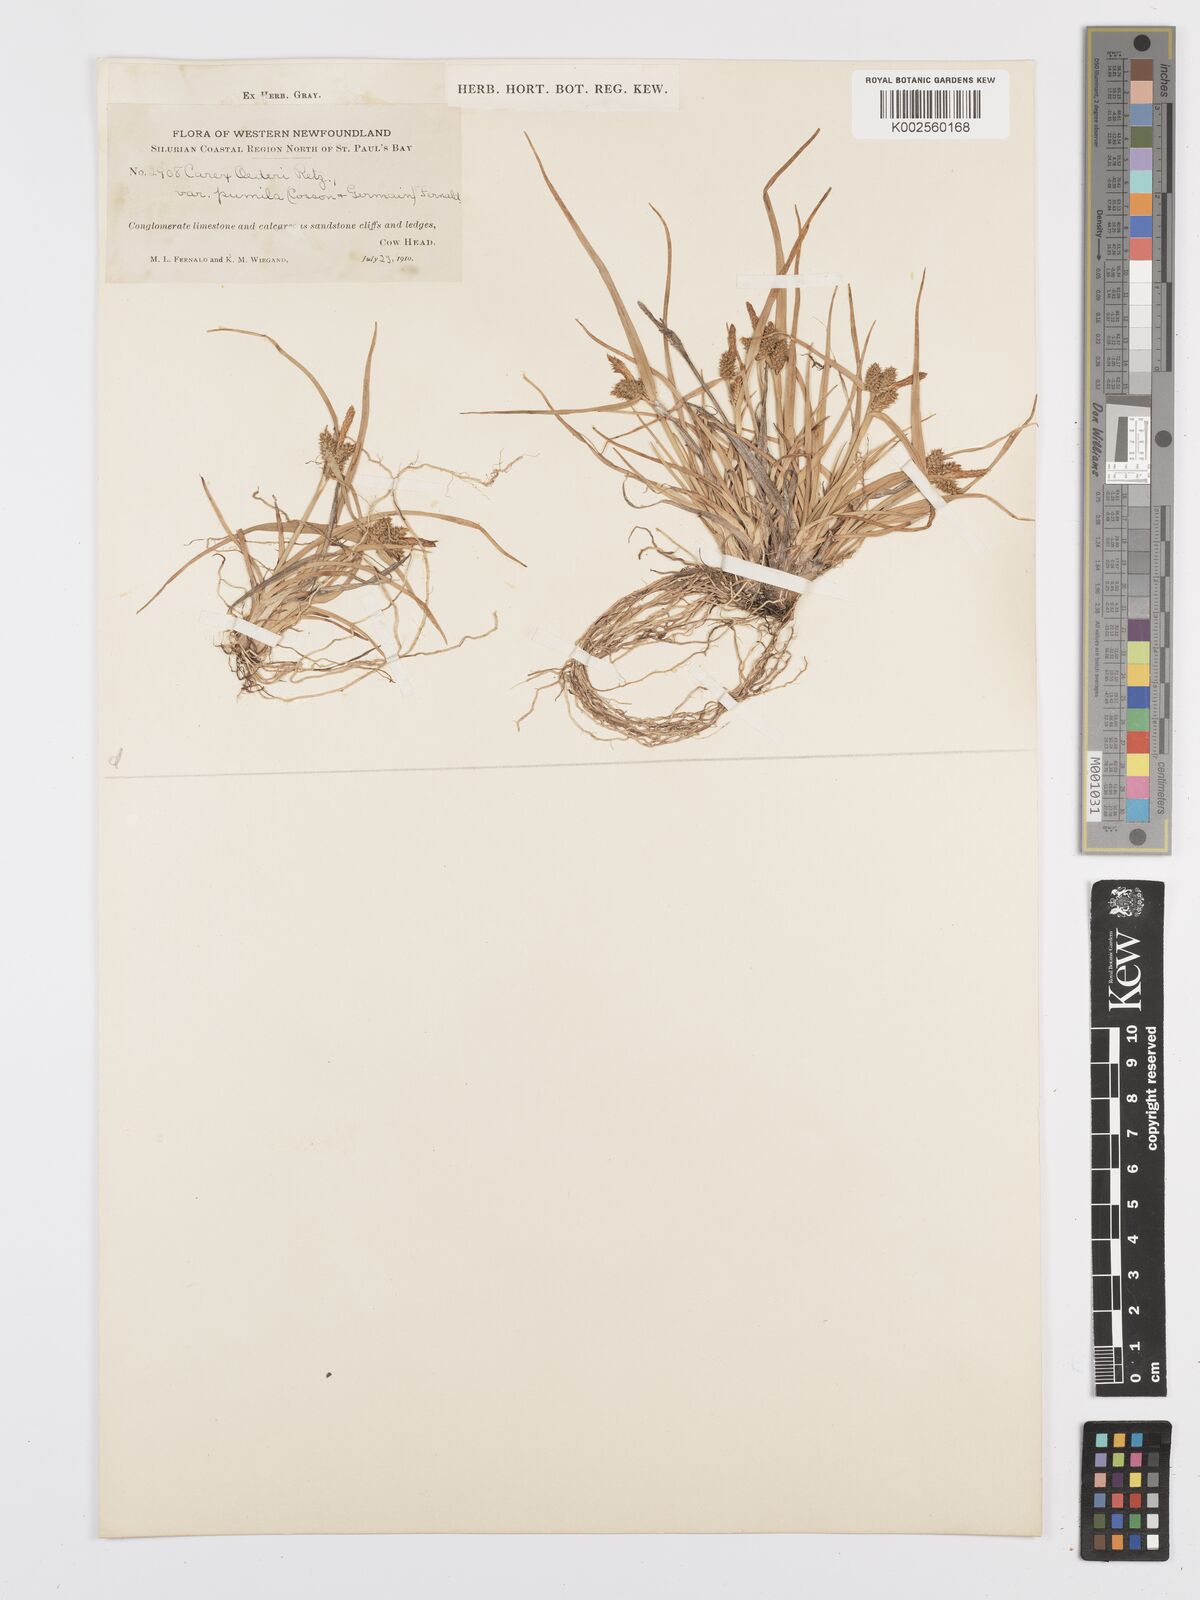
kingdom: Plantae
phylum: Tracheophyta
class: Liliopsida
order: Poales
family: Cyperaceae
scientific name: Cyperaceae
